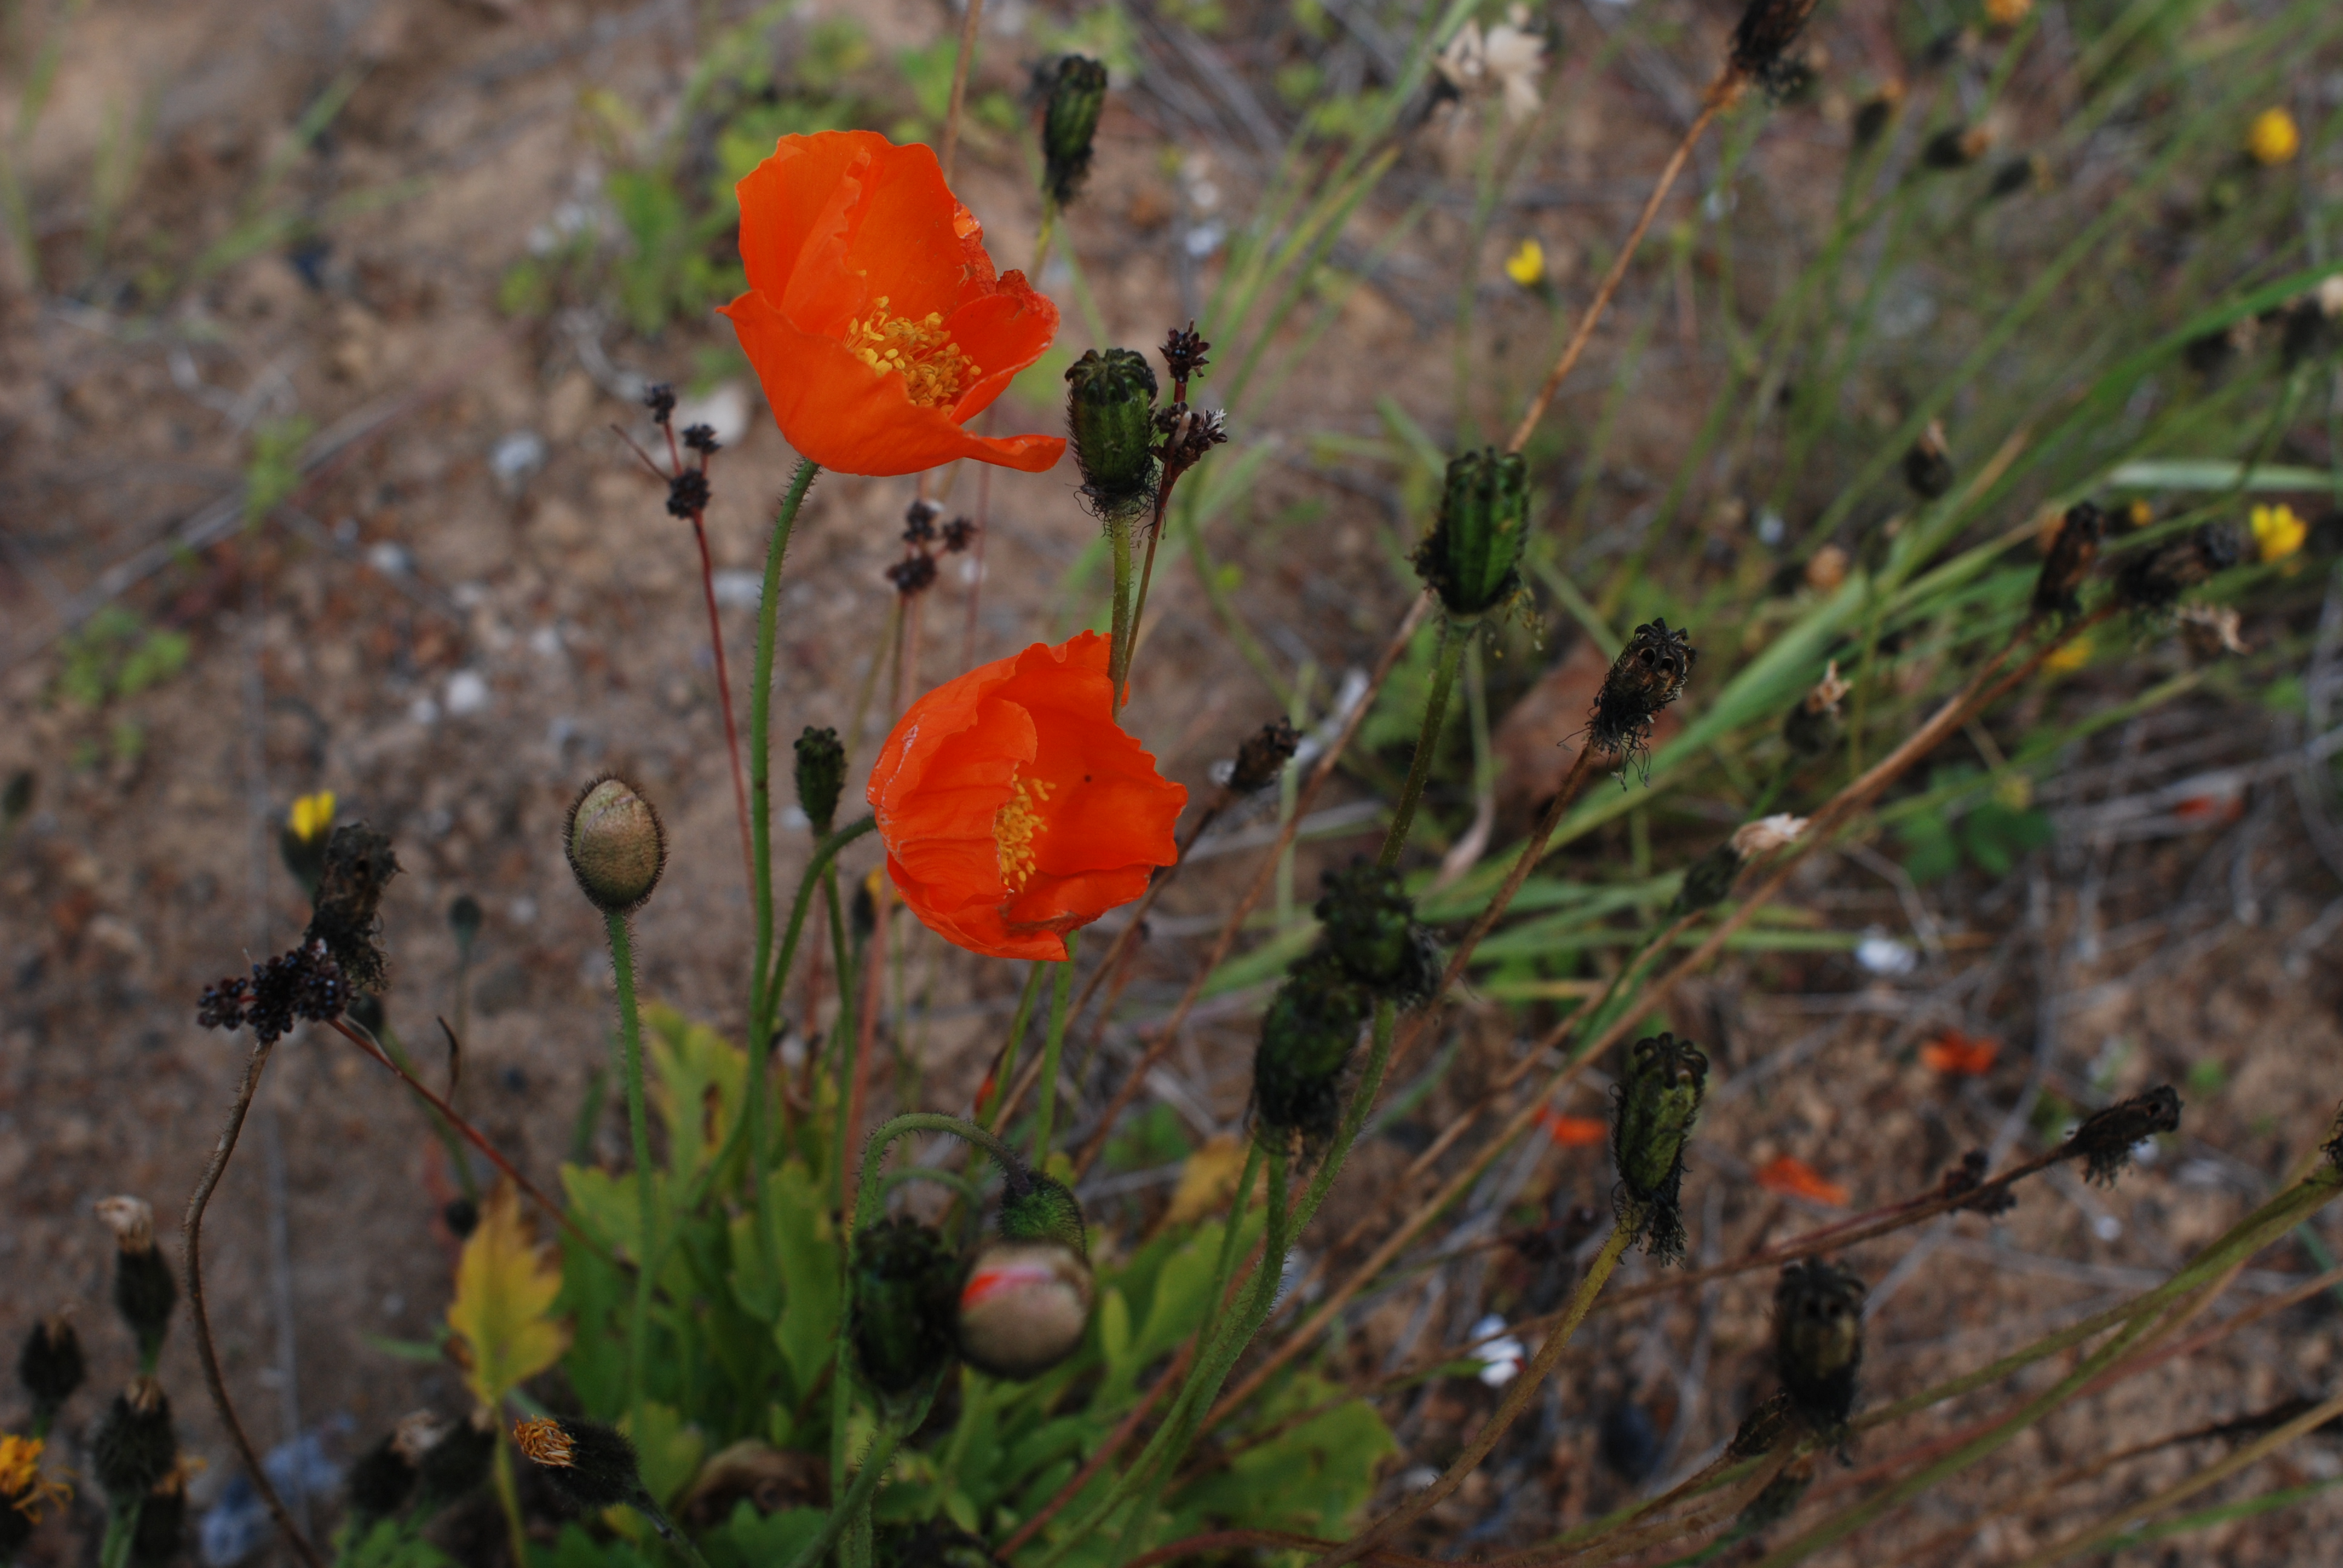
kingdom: Plantae
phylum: Tracheophyta
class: Magnoliopsida
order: Ranunculales
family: Papaveraceae
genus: Papaver
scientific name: Papaver nudicaule
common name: Arctic poppy
